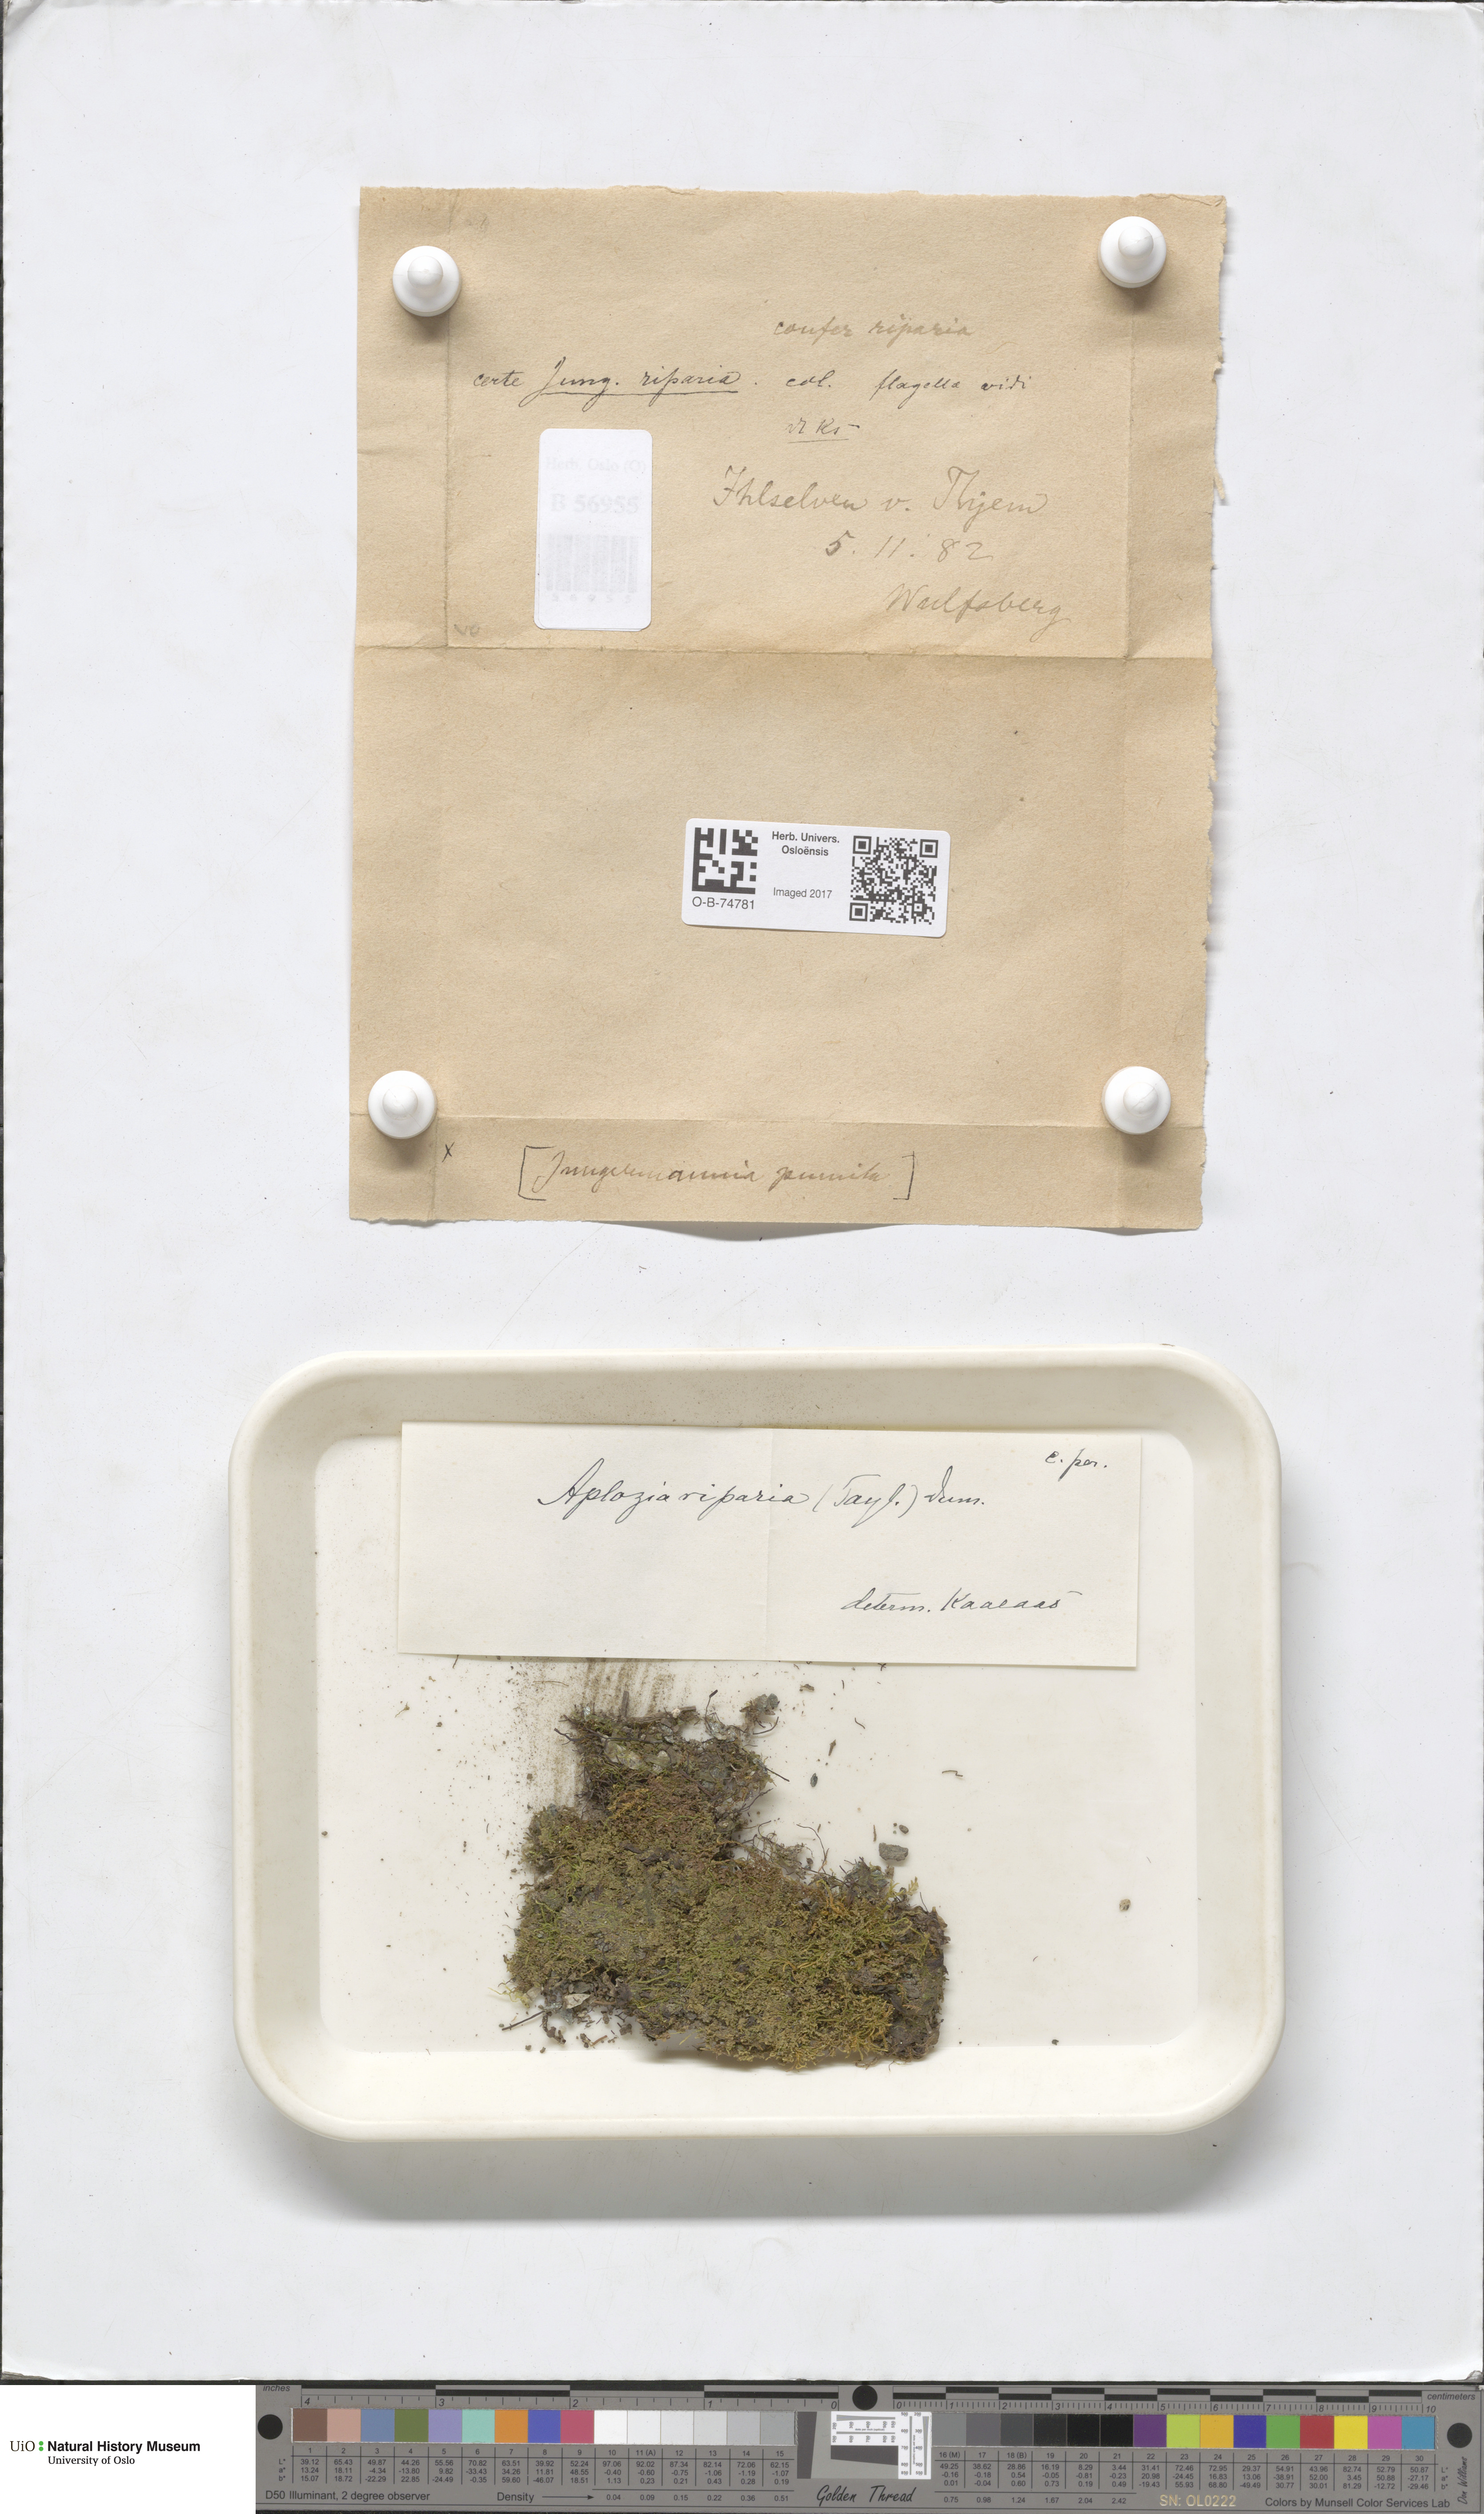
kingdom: Plantae
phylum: Marchantiophyta
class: Jungermanniopsida
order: Jungermanniales
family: Jungermanniaceae
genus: Jungermannia
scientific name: Jungermannia atrovirens
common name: Dark-green flapwort
